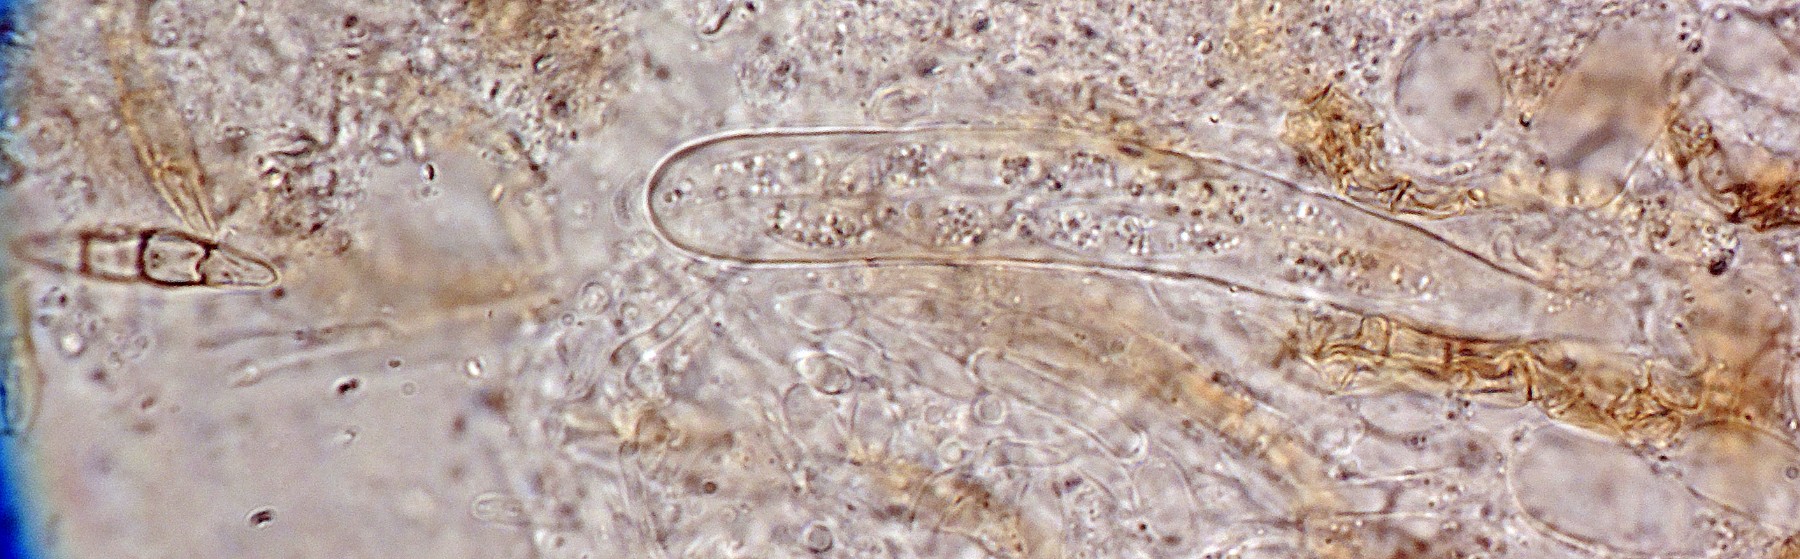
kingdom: Fungi
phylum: Ascomycota
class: Dothideomycetes
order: Pleosporales
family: Phaeosphaeriaceae
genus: Phaeosphaeria
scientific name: Phaeosphaeria eustoma
